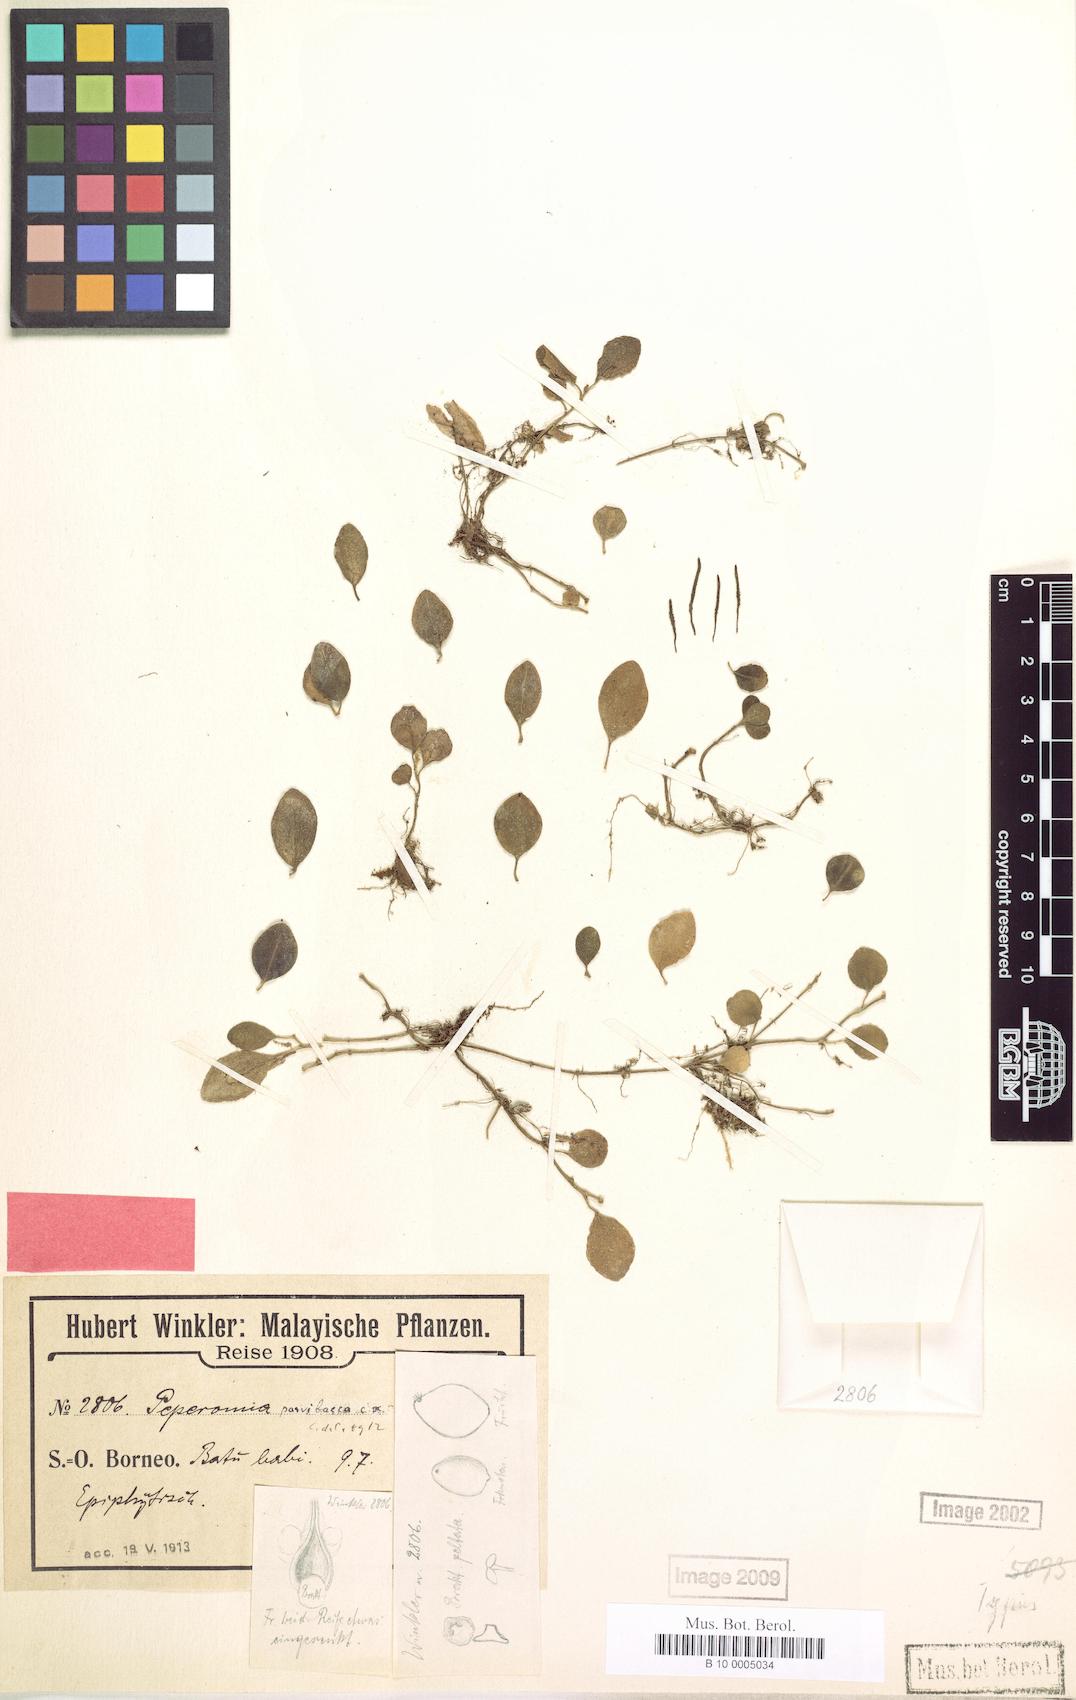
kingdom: Plantae
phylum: Tracheophyta
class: Magnoliopsida
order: Piperales
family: Piperaceae
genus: Peperomia
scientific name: Peperomia parvibacca
